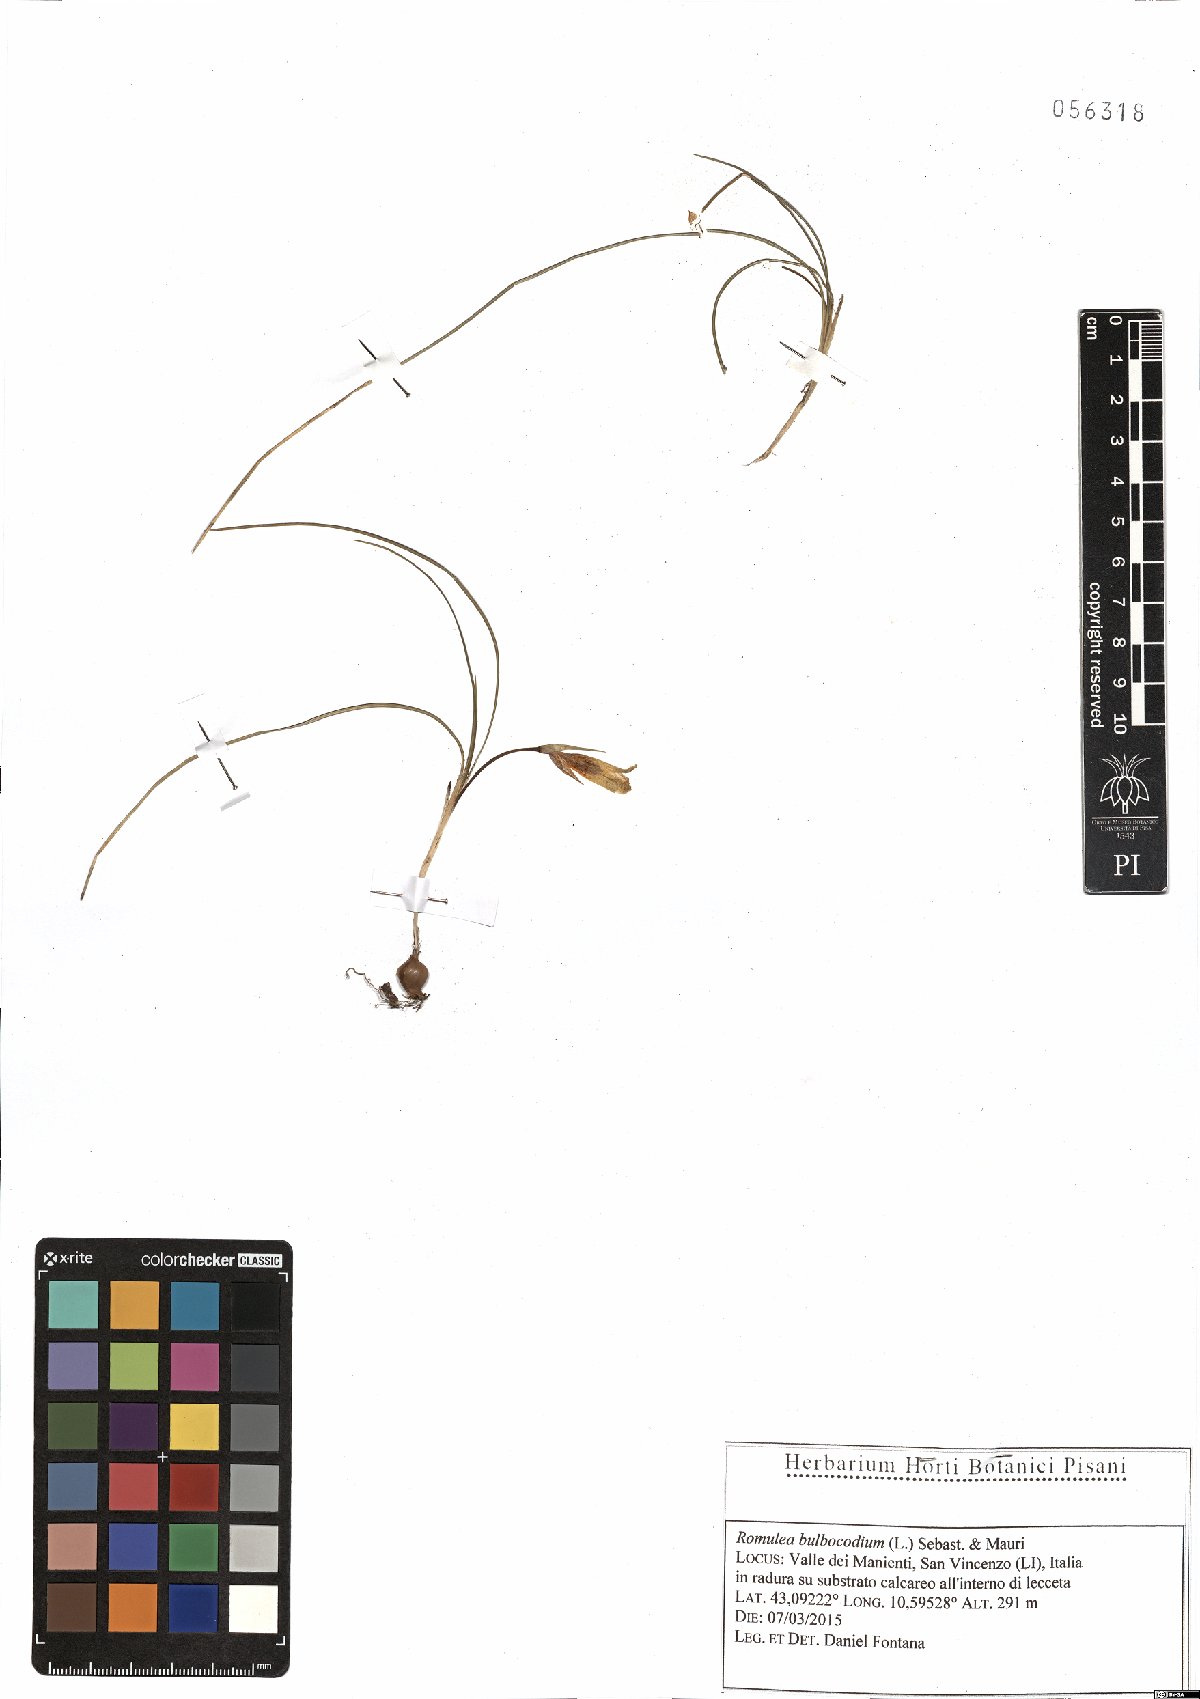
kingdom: Plantae
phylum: Tracheophyta
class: Liliopsida
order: Asparagales
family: Iridaceae
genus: Romulea
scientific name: Romulea bulbocodium
